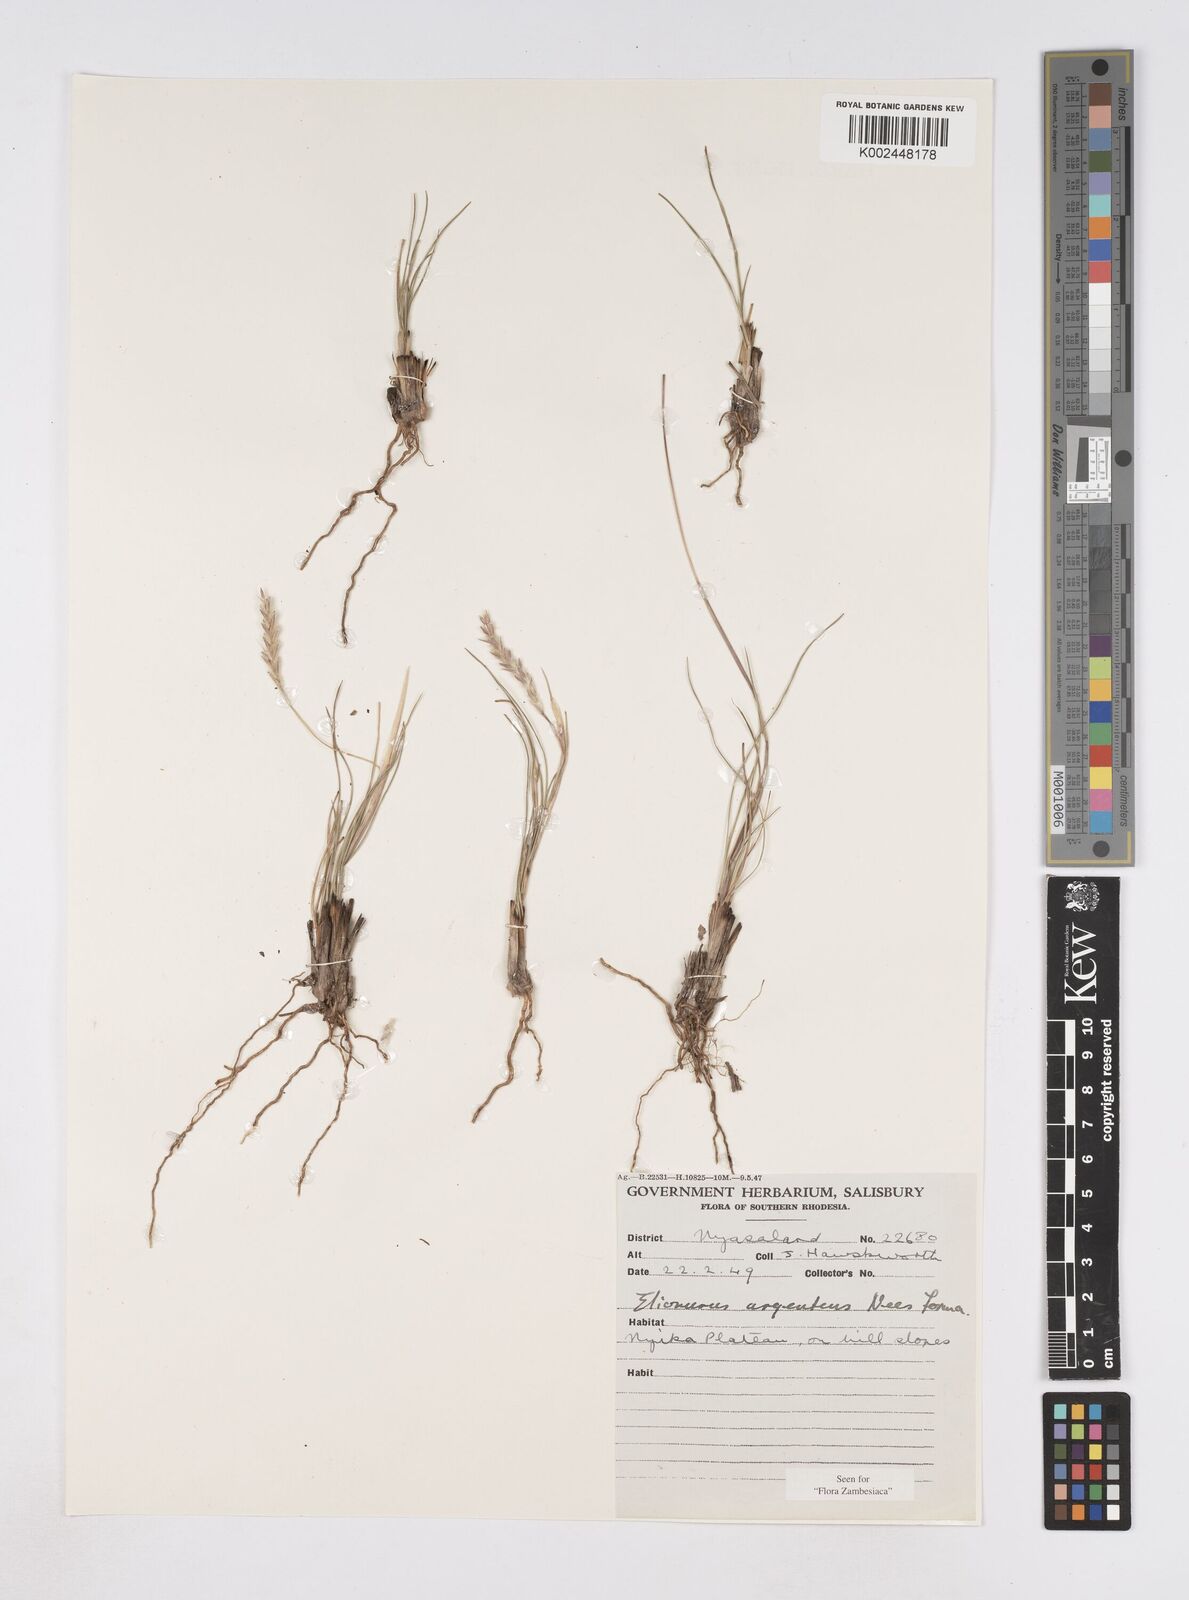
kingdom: Plantae
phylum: Tracheophyta
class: Liliopsida
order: Poales
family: Poaceae
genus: Elionurus
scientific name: Elionurus muticus
